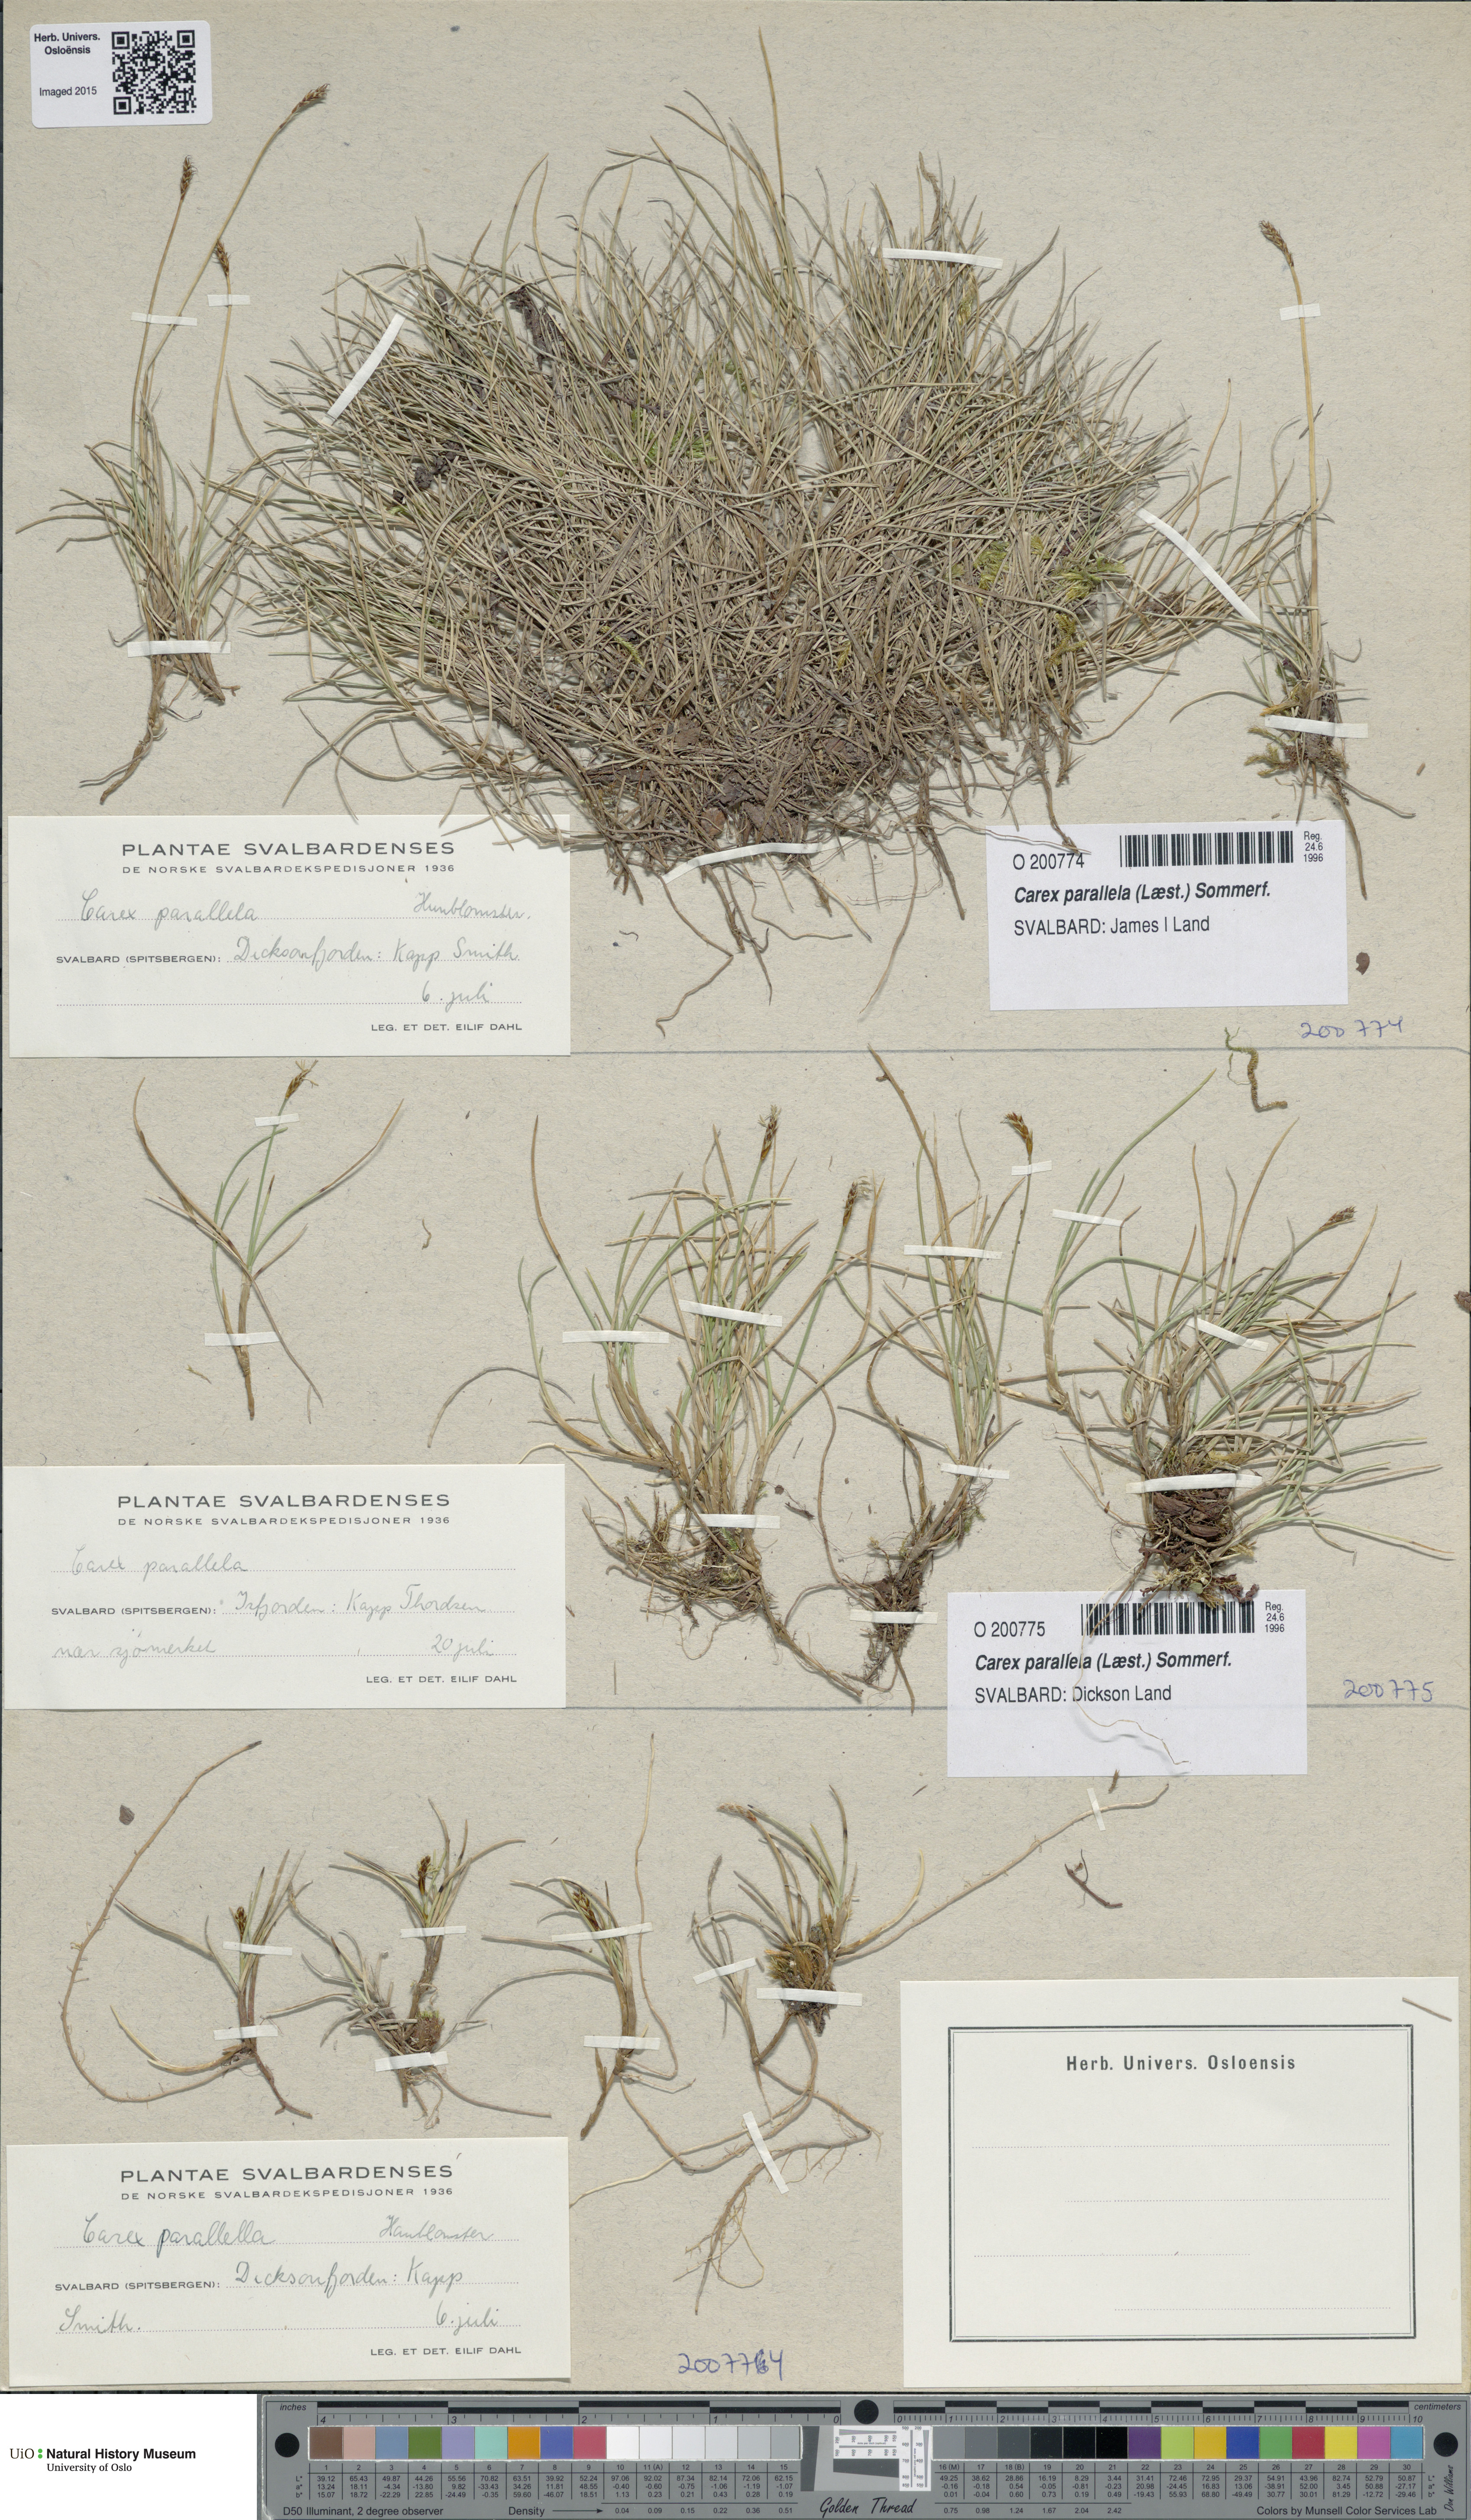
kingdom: Plantae
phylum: Tracheophyta
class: Liliopsida
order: Poales
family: Cyperaceae
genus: Carex
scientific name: Carex parallela
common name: Parallel sedge
